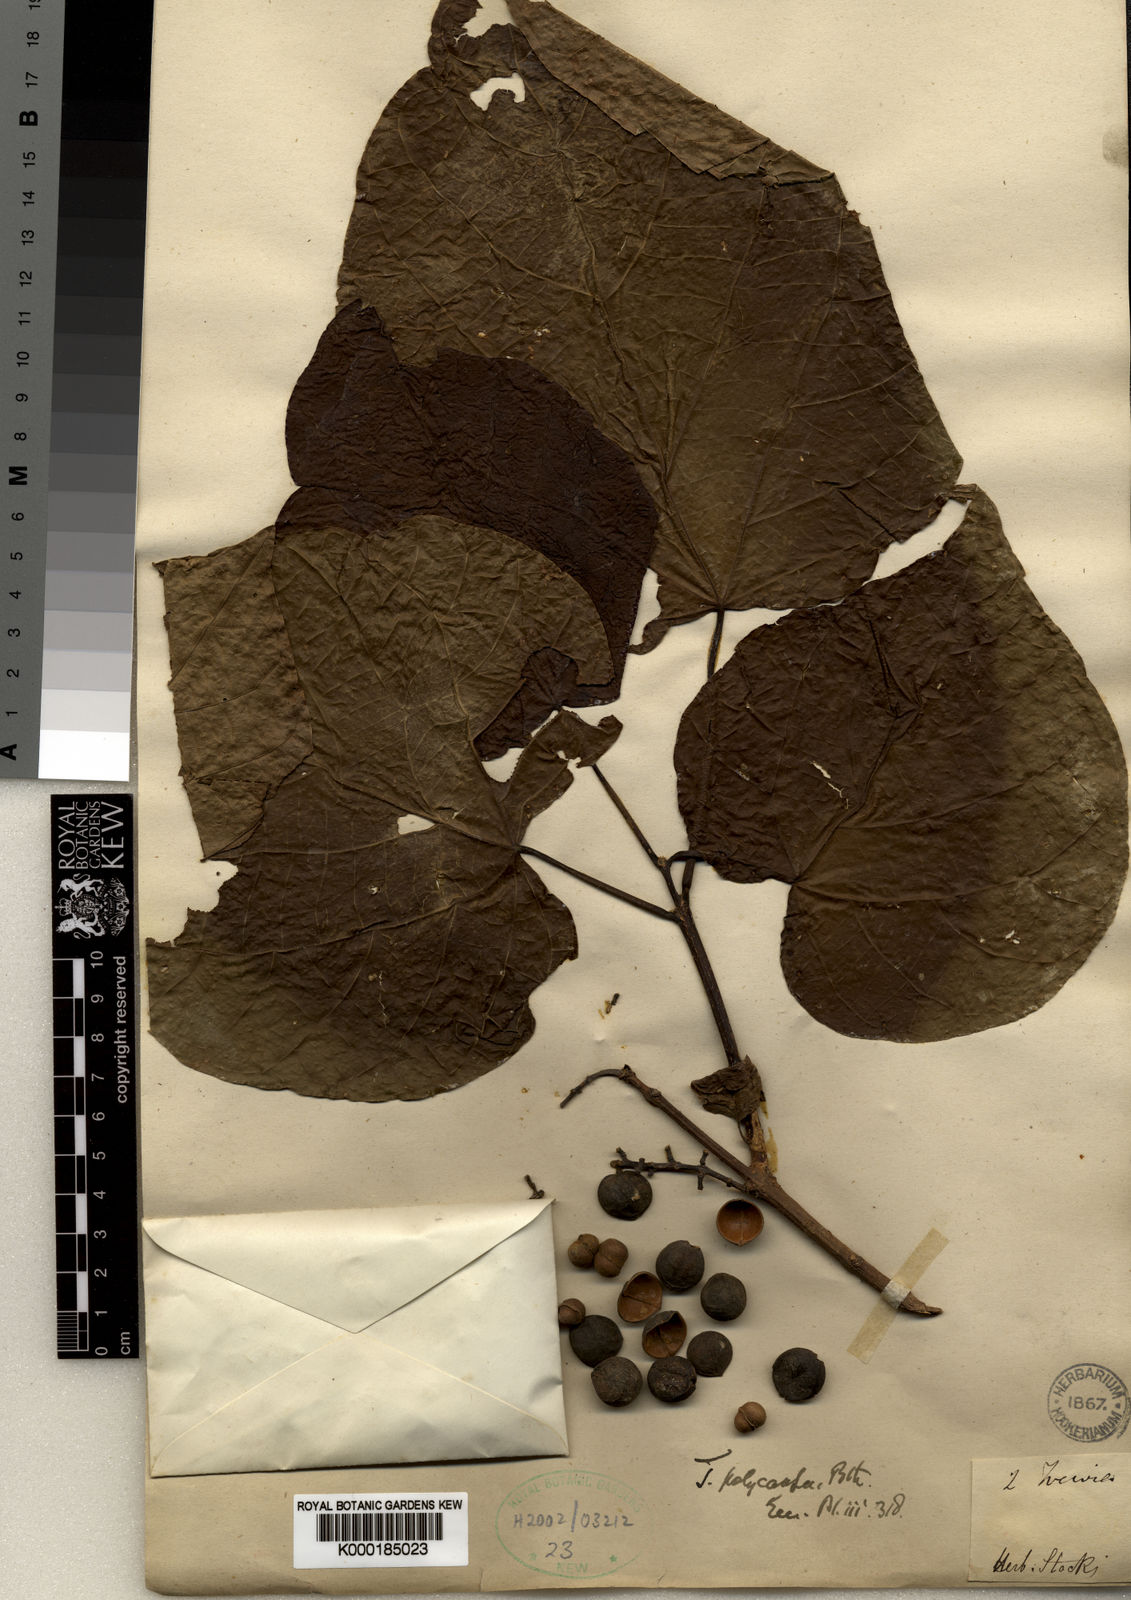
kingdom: Plantae
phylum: Tracheophyta
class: Magnoliopsida
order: Malpighiales
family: Euphorbiaceae
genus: Mallotus
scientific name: Mallotus polycarpus
